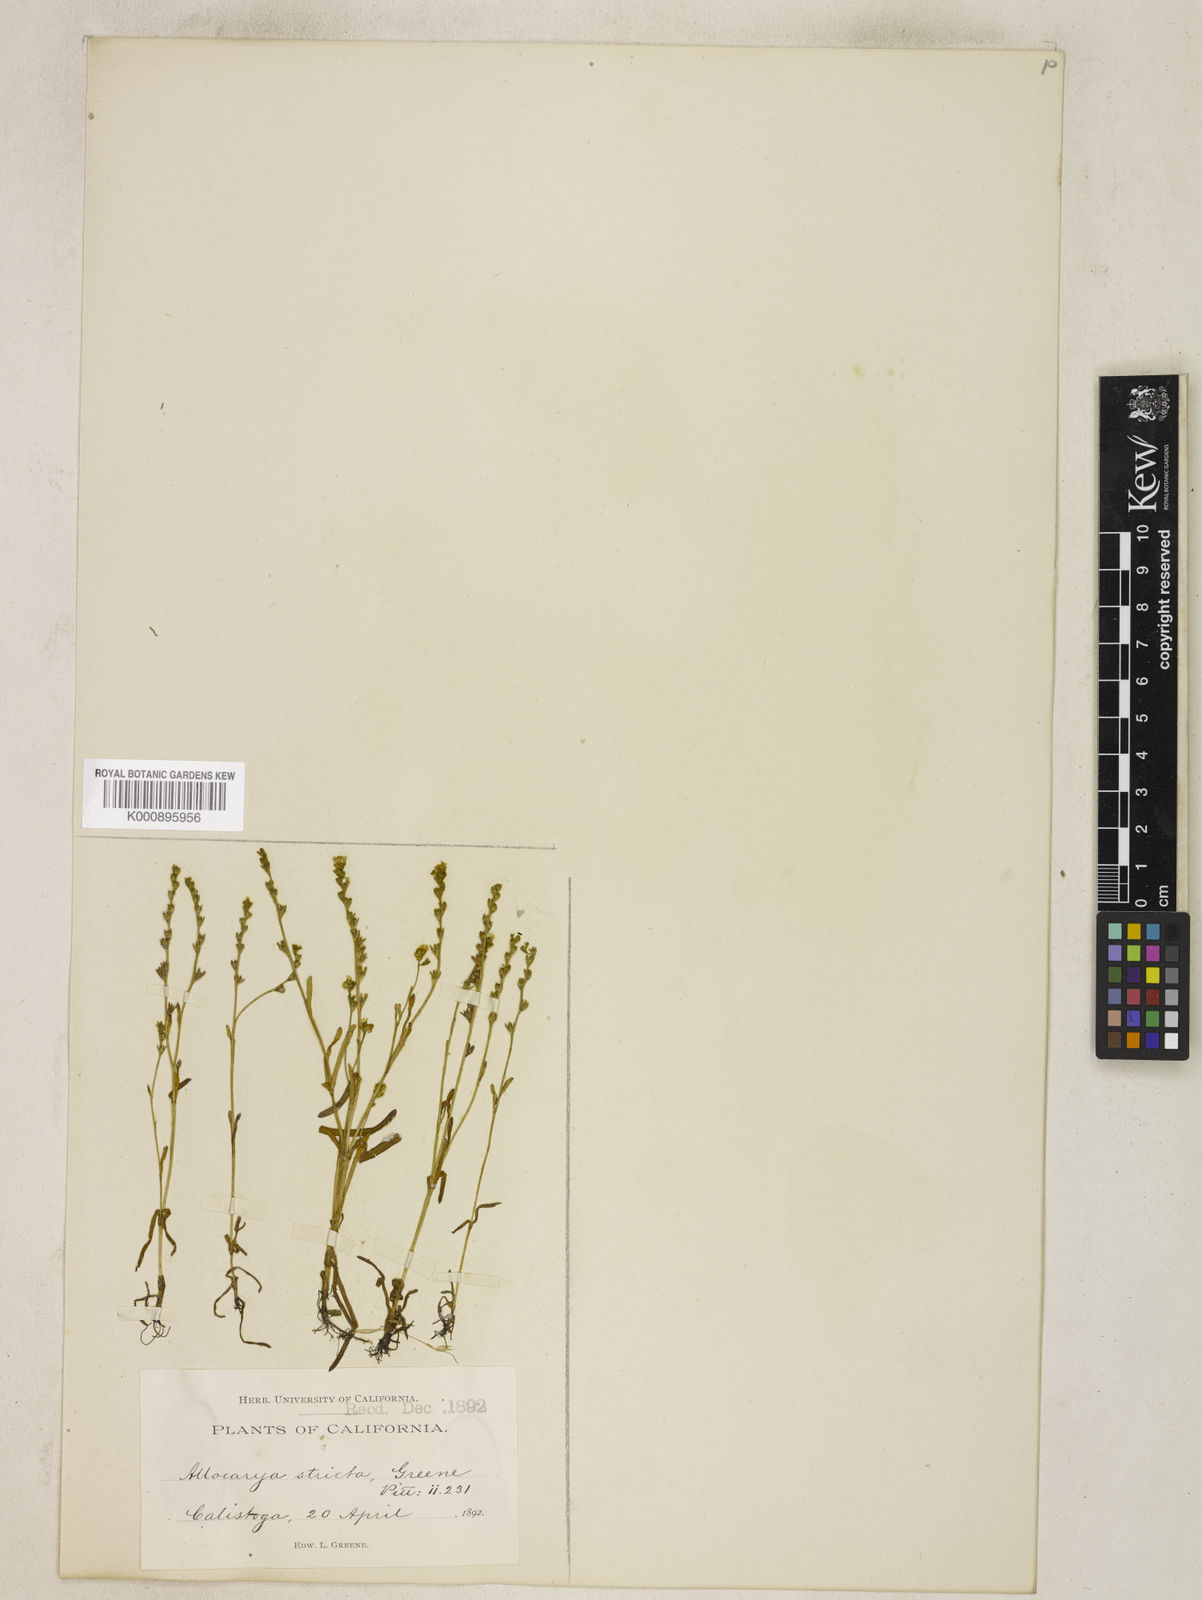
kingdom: Plantae
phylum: Tracheophyta
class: Magnoliopsida
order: Boraginales
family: Boraginaceae
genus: Plagiobothrys
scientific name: Plagiobothrys strictus
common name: Calistoga allocarya
